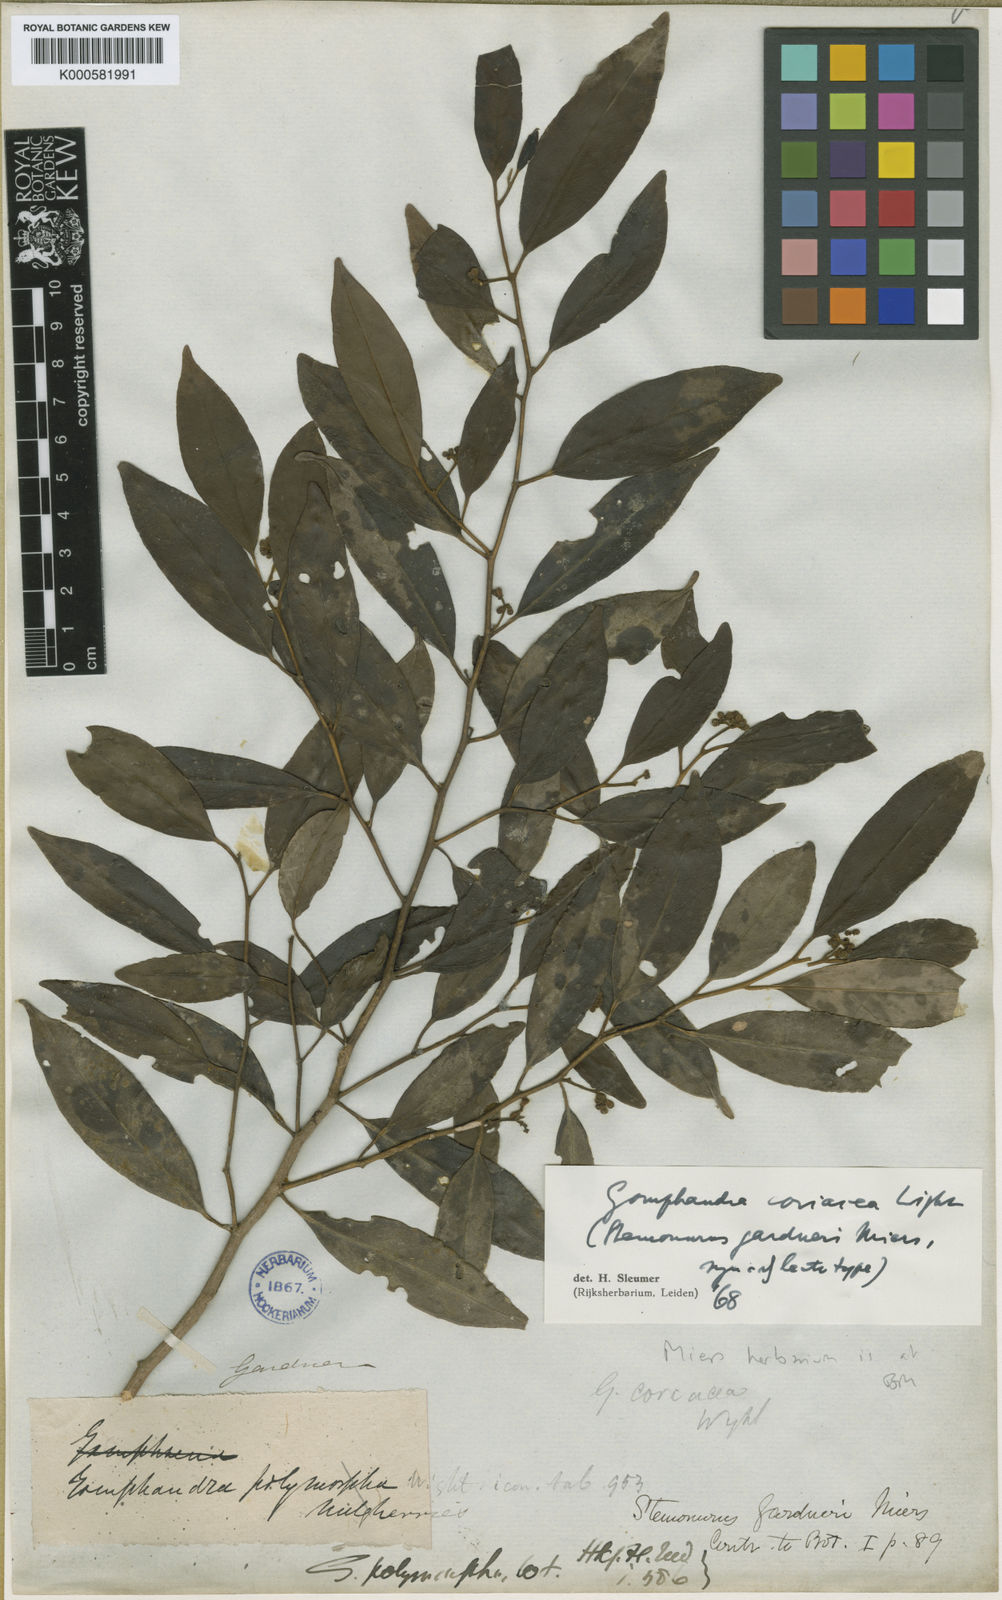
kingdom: Plantae
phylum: Tracheophyta
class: Magnoliopsida
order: Cardiopteridales
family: Stemonuraceae
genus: Gomphandra
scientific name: Gomphandra coriacea
